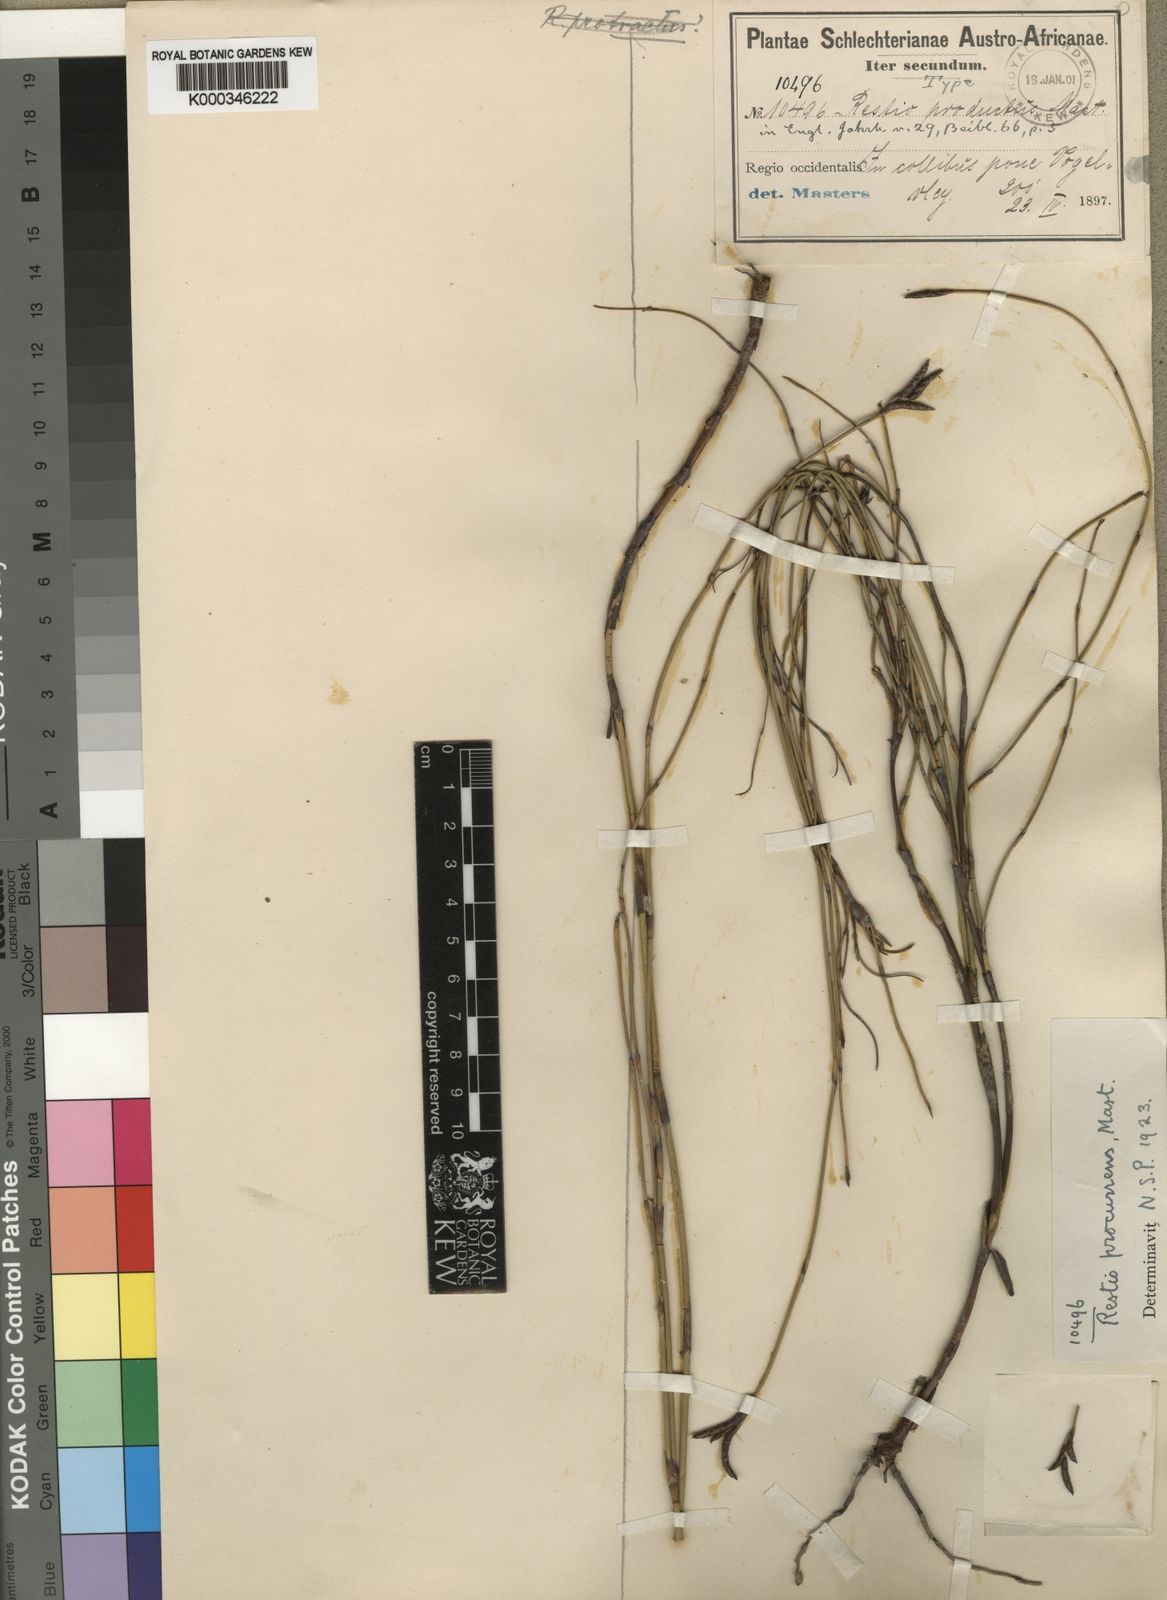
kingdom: Plantae
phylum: Tracheophyta
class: Liliopsida
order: Poales
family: Restionaceae
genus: Restio
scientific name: Restio
